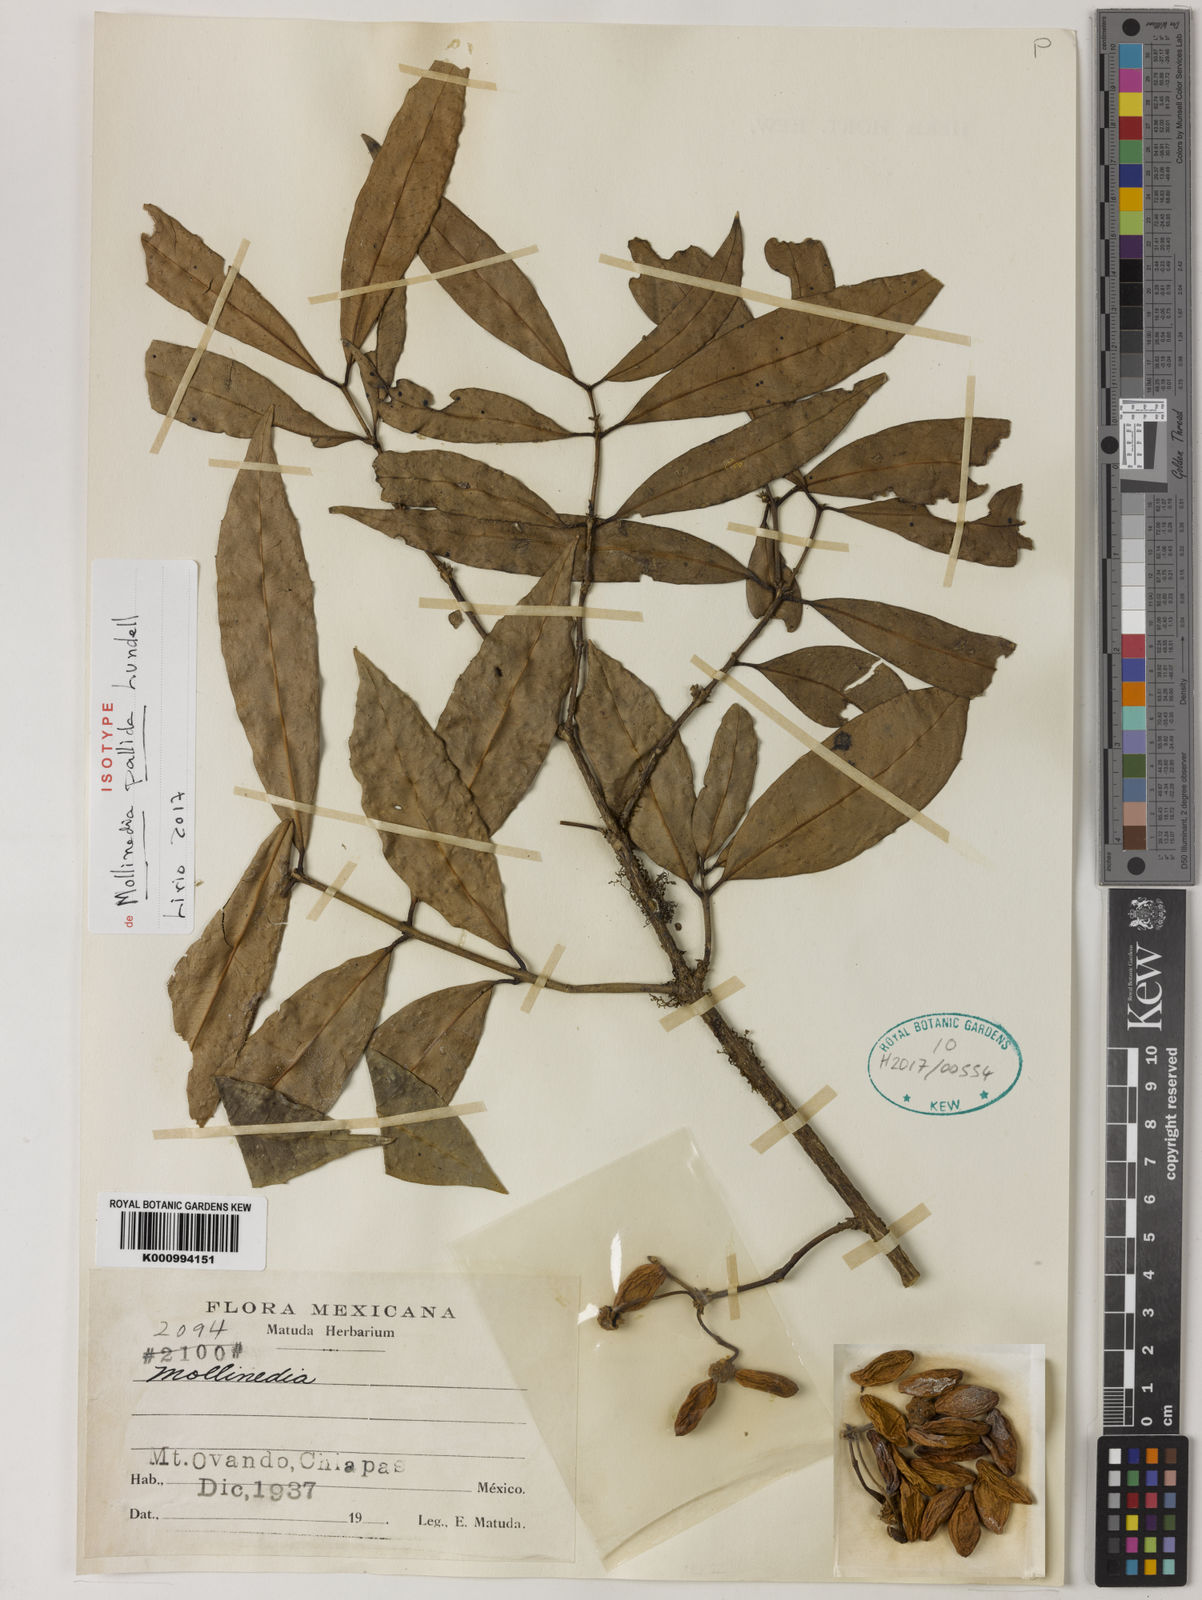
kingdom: Plantae
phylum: Tracheophyta
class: Magnoliopsida
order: Laurales
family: Monimiaceae
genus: Mollinedia
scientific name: Mollinedia pallida
